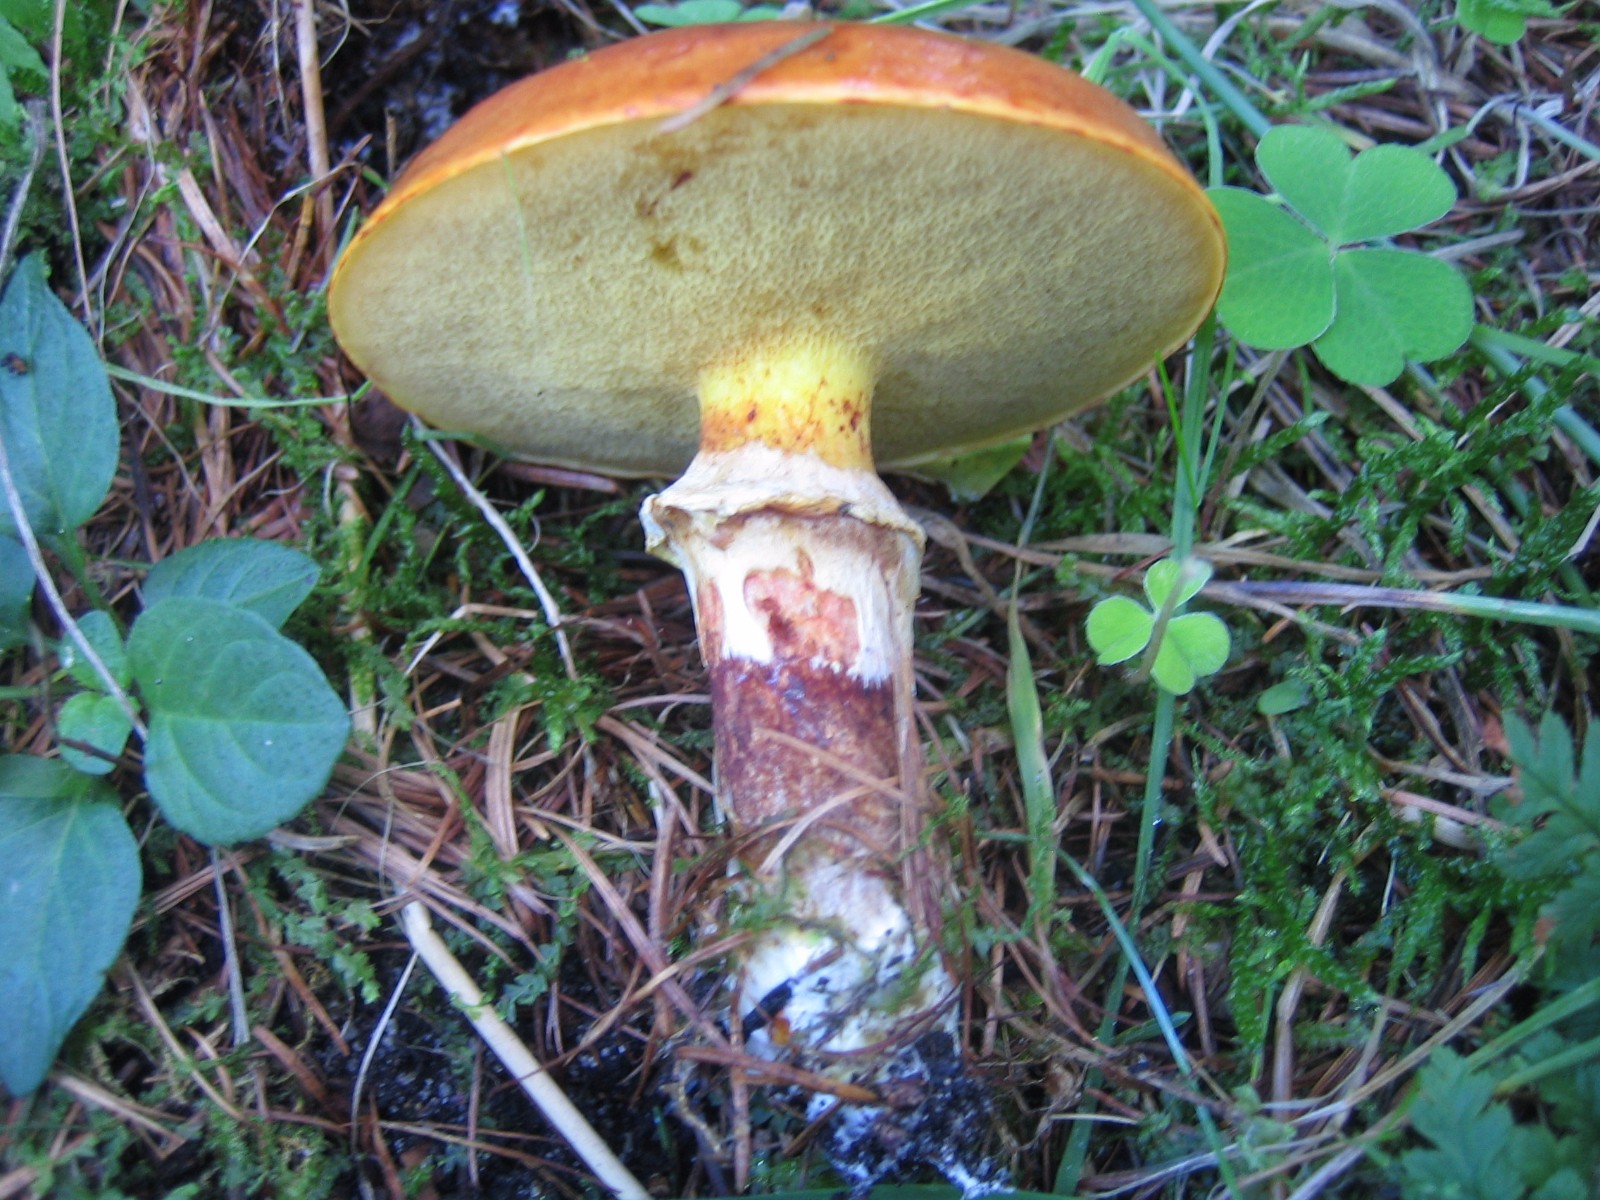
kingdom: Fungi
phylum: Basidiomycota
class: Agaricomycetes
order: Boletales
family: Suillaceae
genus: Suillus
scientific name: Suillus grevillei
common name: lærke-slimrørhat
